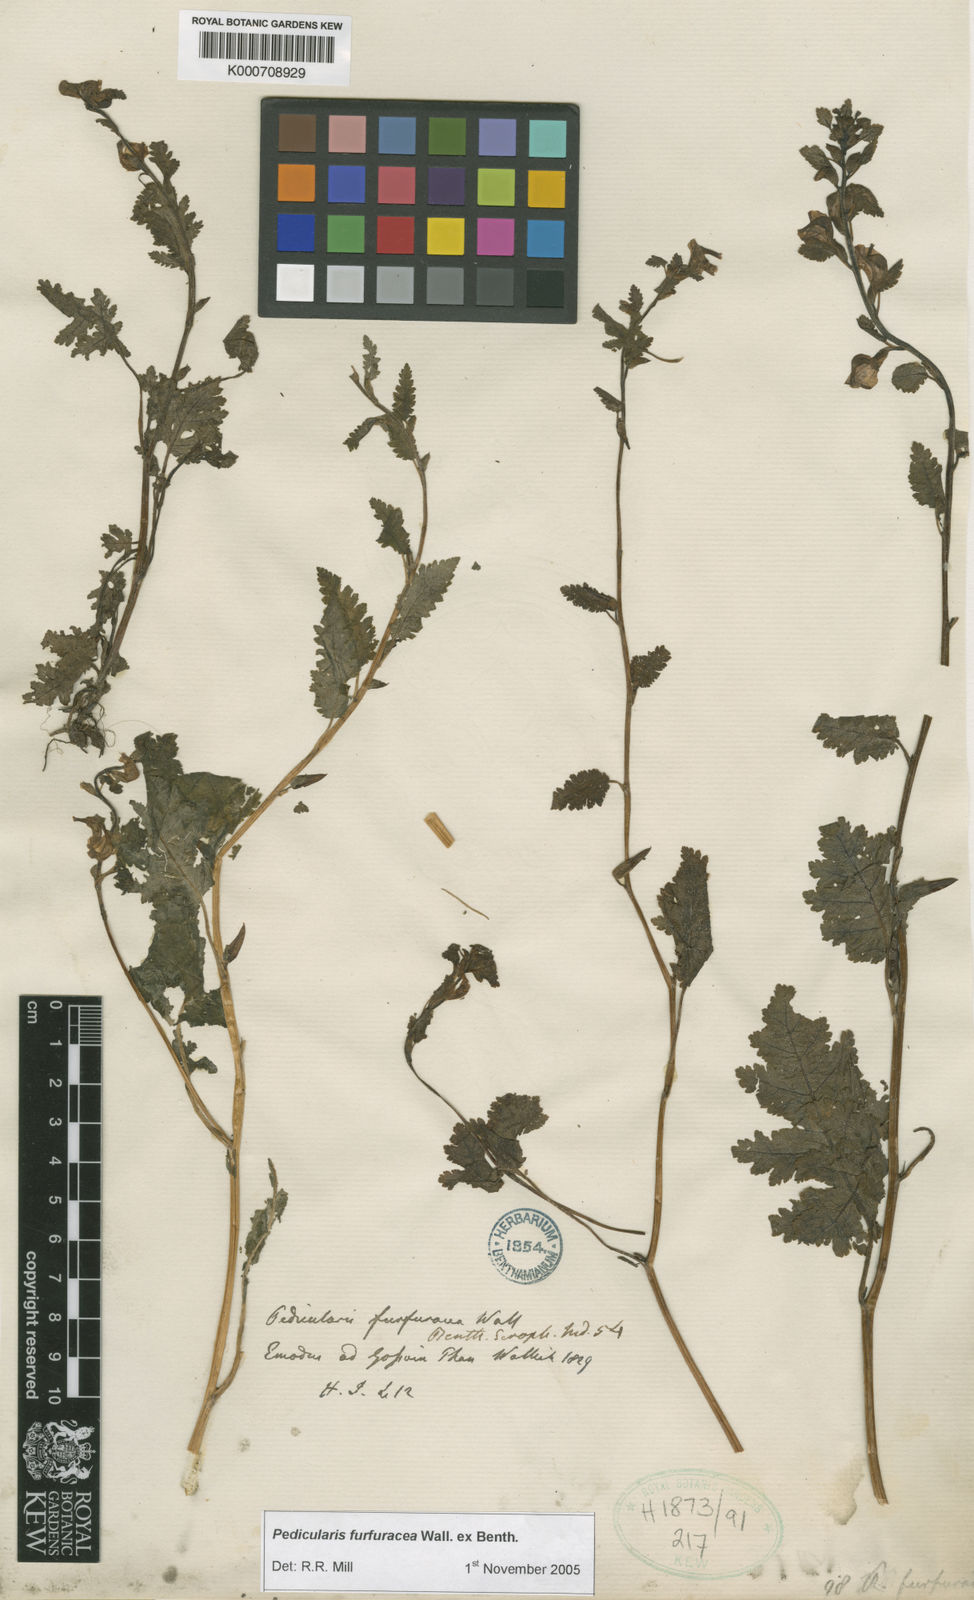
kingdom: Plantae
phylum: Tracheophyta
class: Magnoliopsida
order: Lamiales
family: Orobanchaceae
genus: Pedicularis
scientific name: Pedicularis
